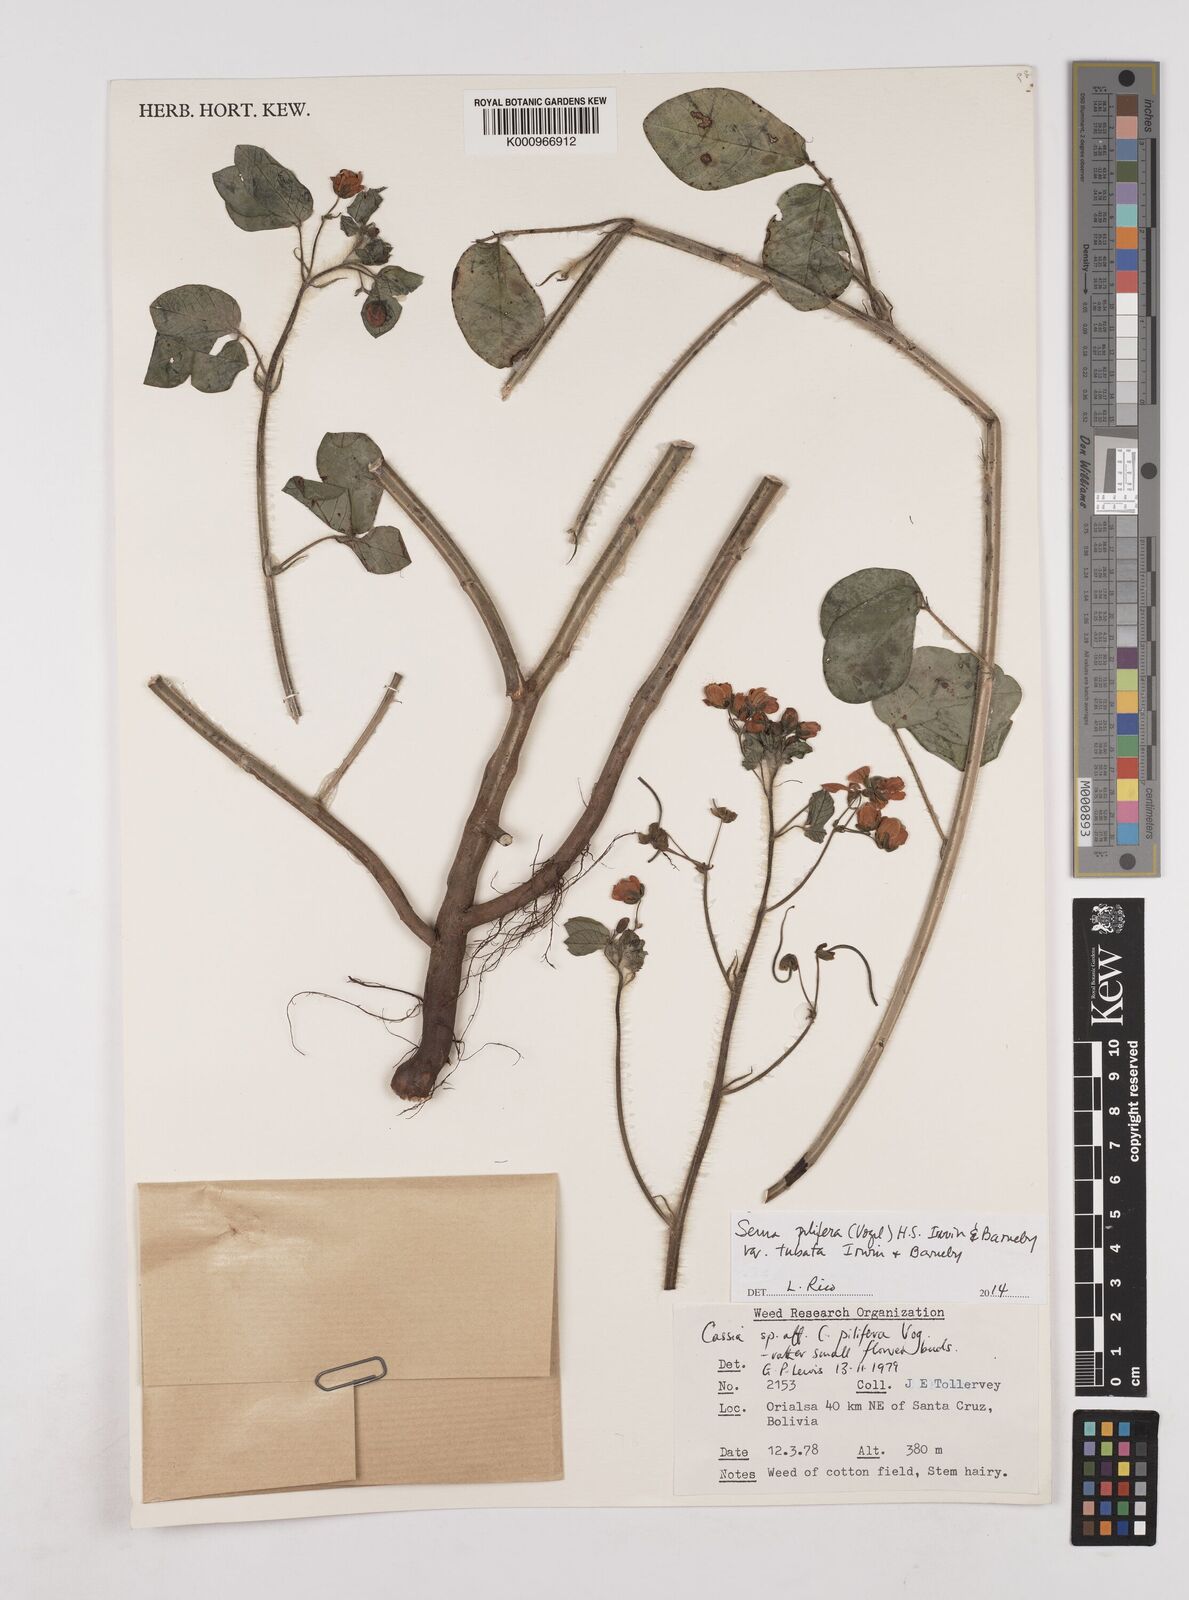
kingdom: Plantae
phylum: Tracheophyta
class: Magnoliopsida
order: Fabales
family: Fabaceae
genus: Senna
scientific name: Senna pilifera
